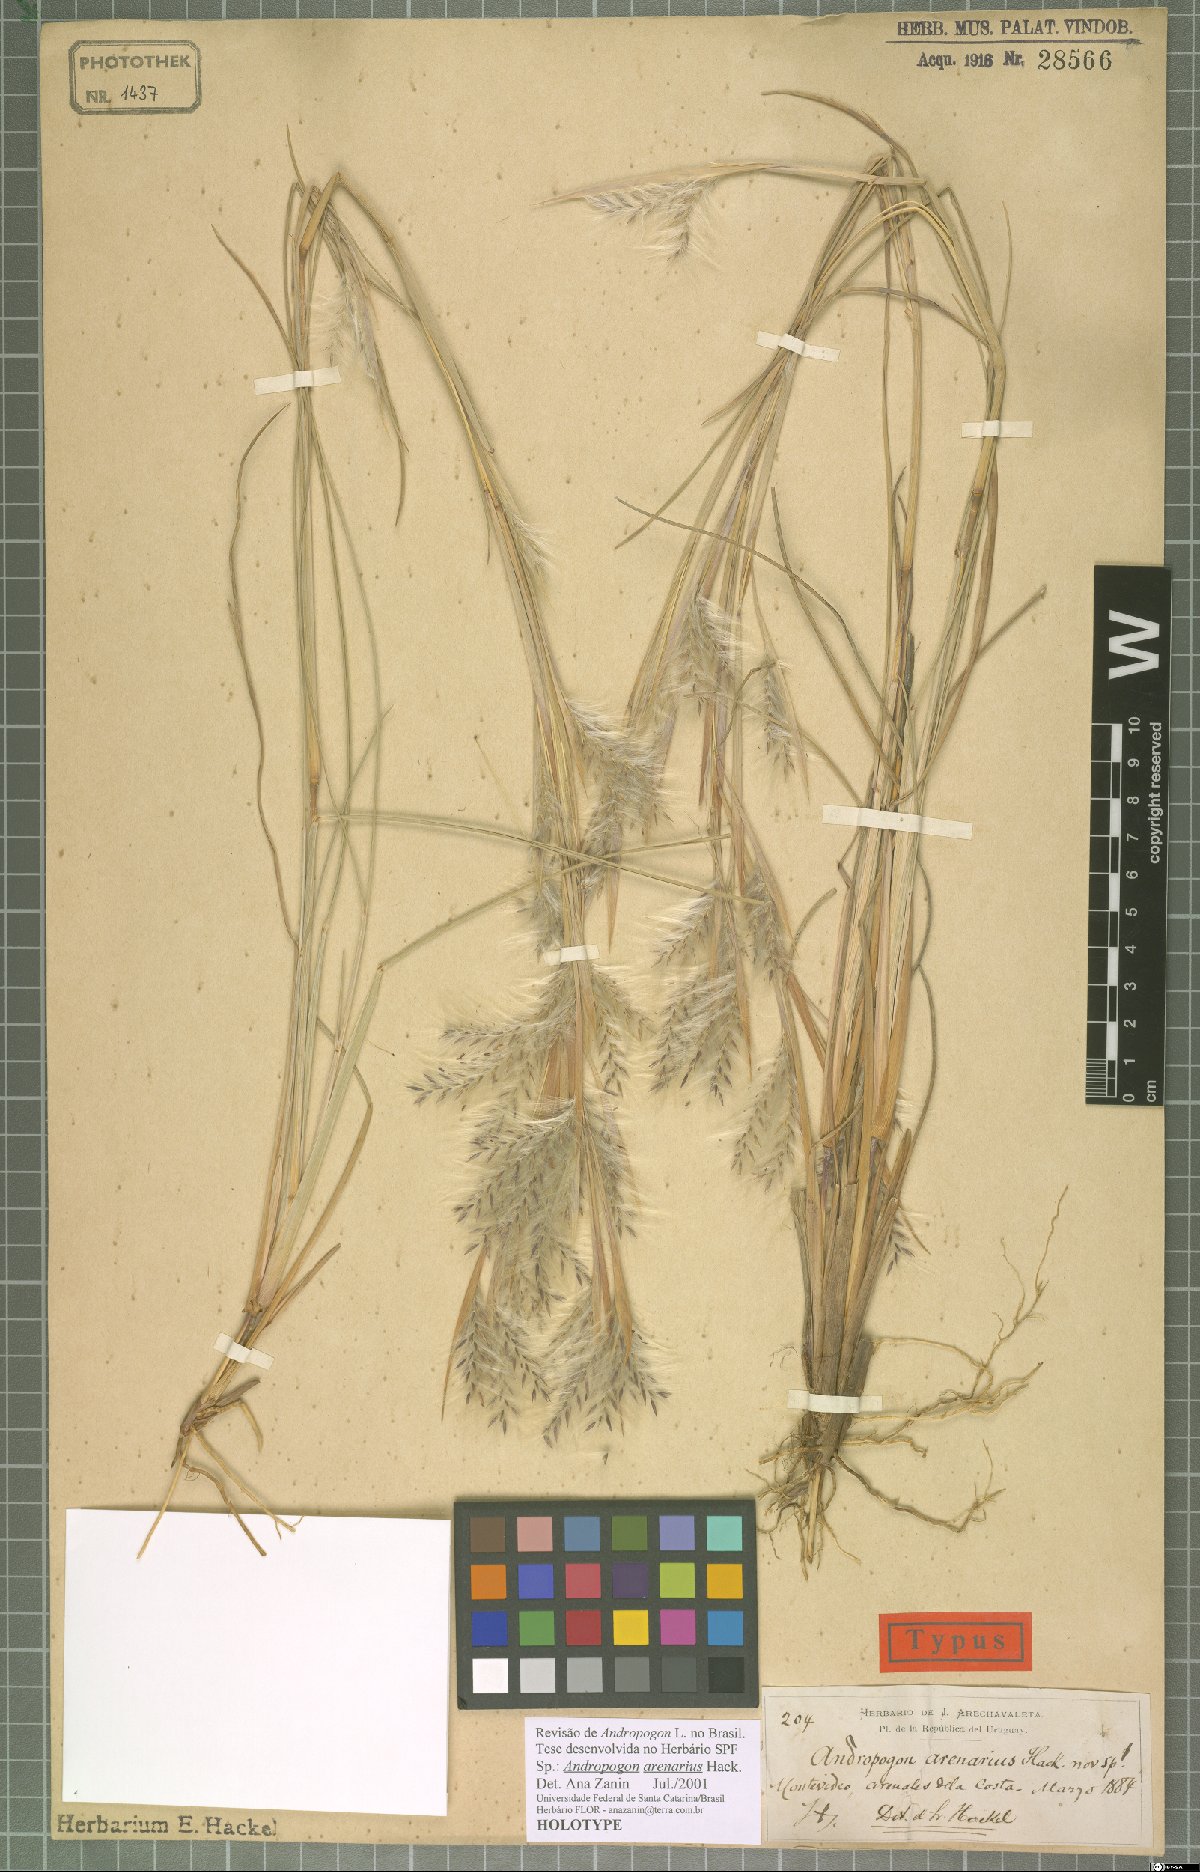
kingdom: Plantae
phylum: Tracheophyta
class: Liliopsida
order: Poales
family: Poaceae
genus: Andropogon
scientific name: Andropogon arenarius
